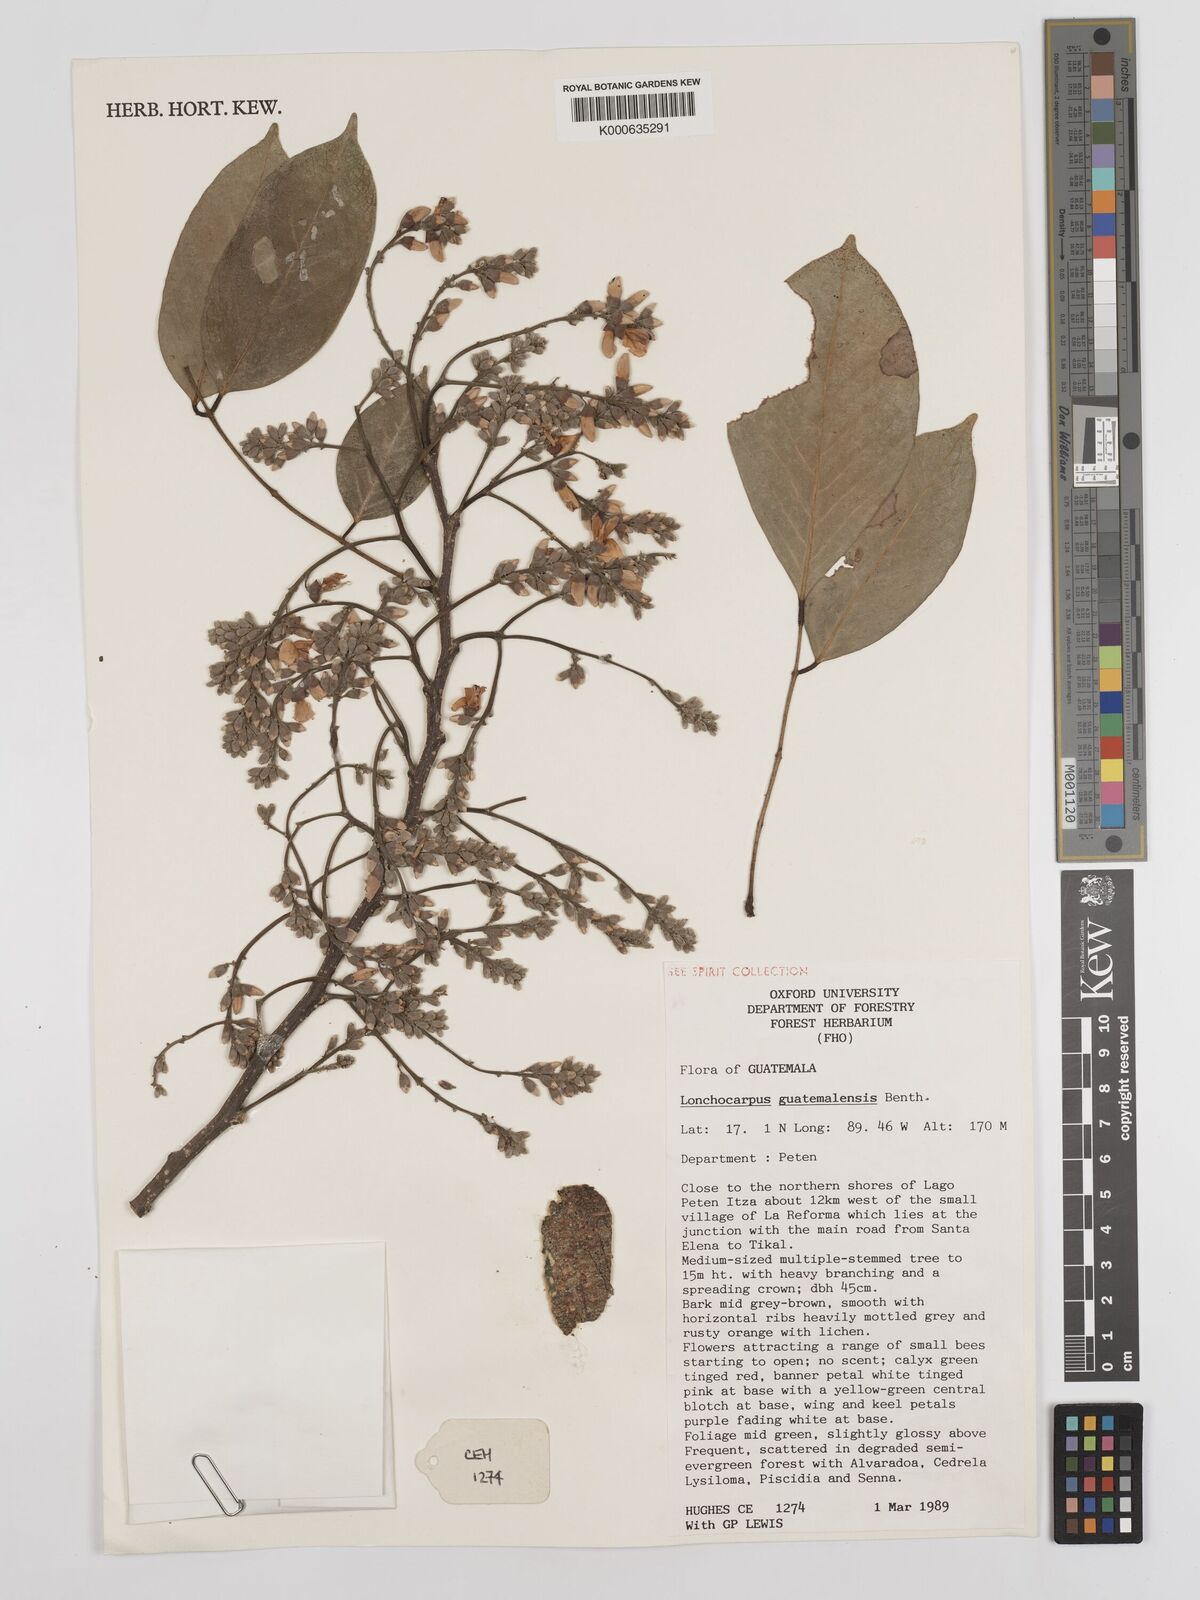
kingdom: Plantae
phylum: Tracheophyta
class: Magnoliopsida
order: Fabales
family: Fabaceae
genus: Lonchocarpus
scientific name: Lonchocarpus guatemalensis
